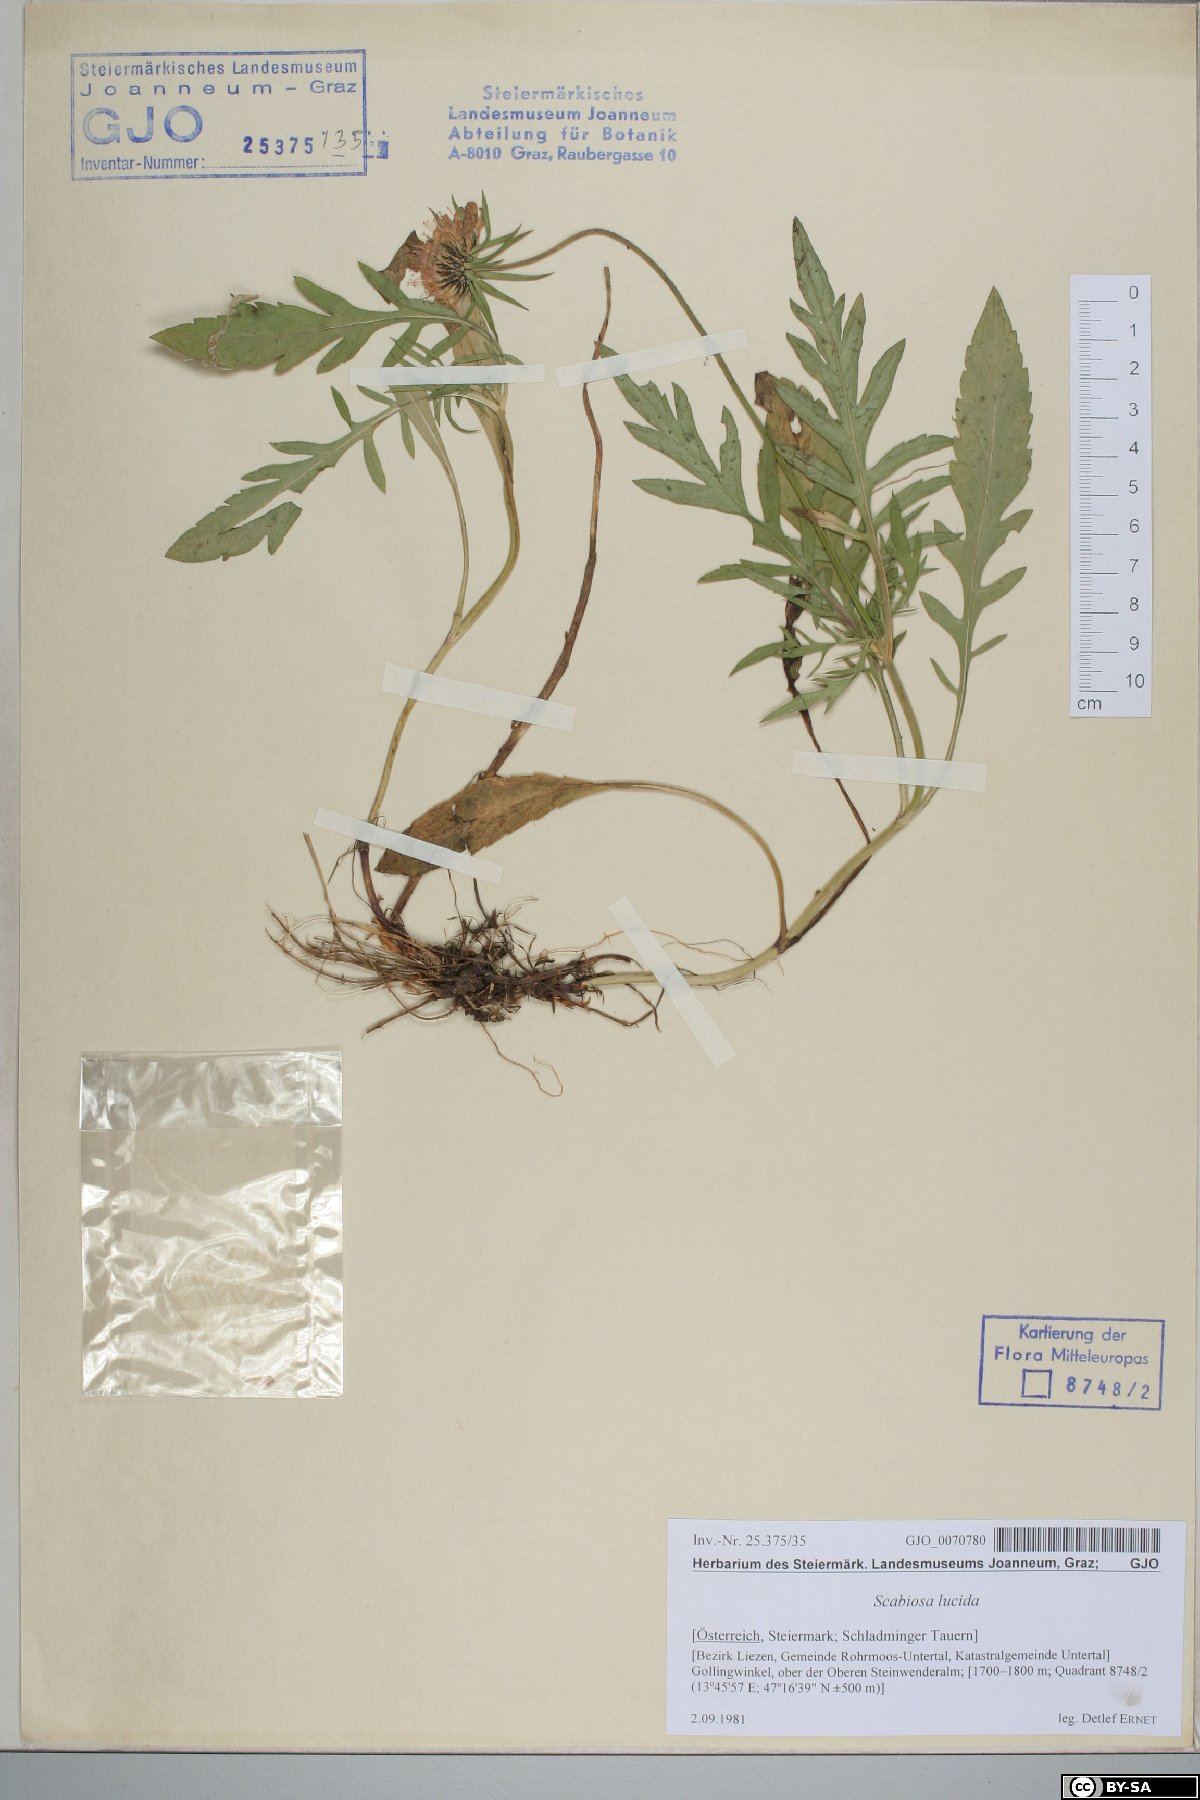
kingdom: Plantae
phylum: Tracheophyta
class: Magnoliopsida
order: Dipsacales
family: Caprifoliaceae
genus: Scabiosa
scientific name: Scabiosa lucida
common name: Shining scabious
